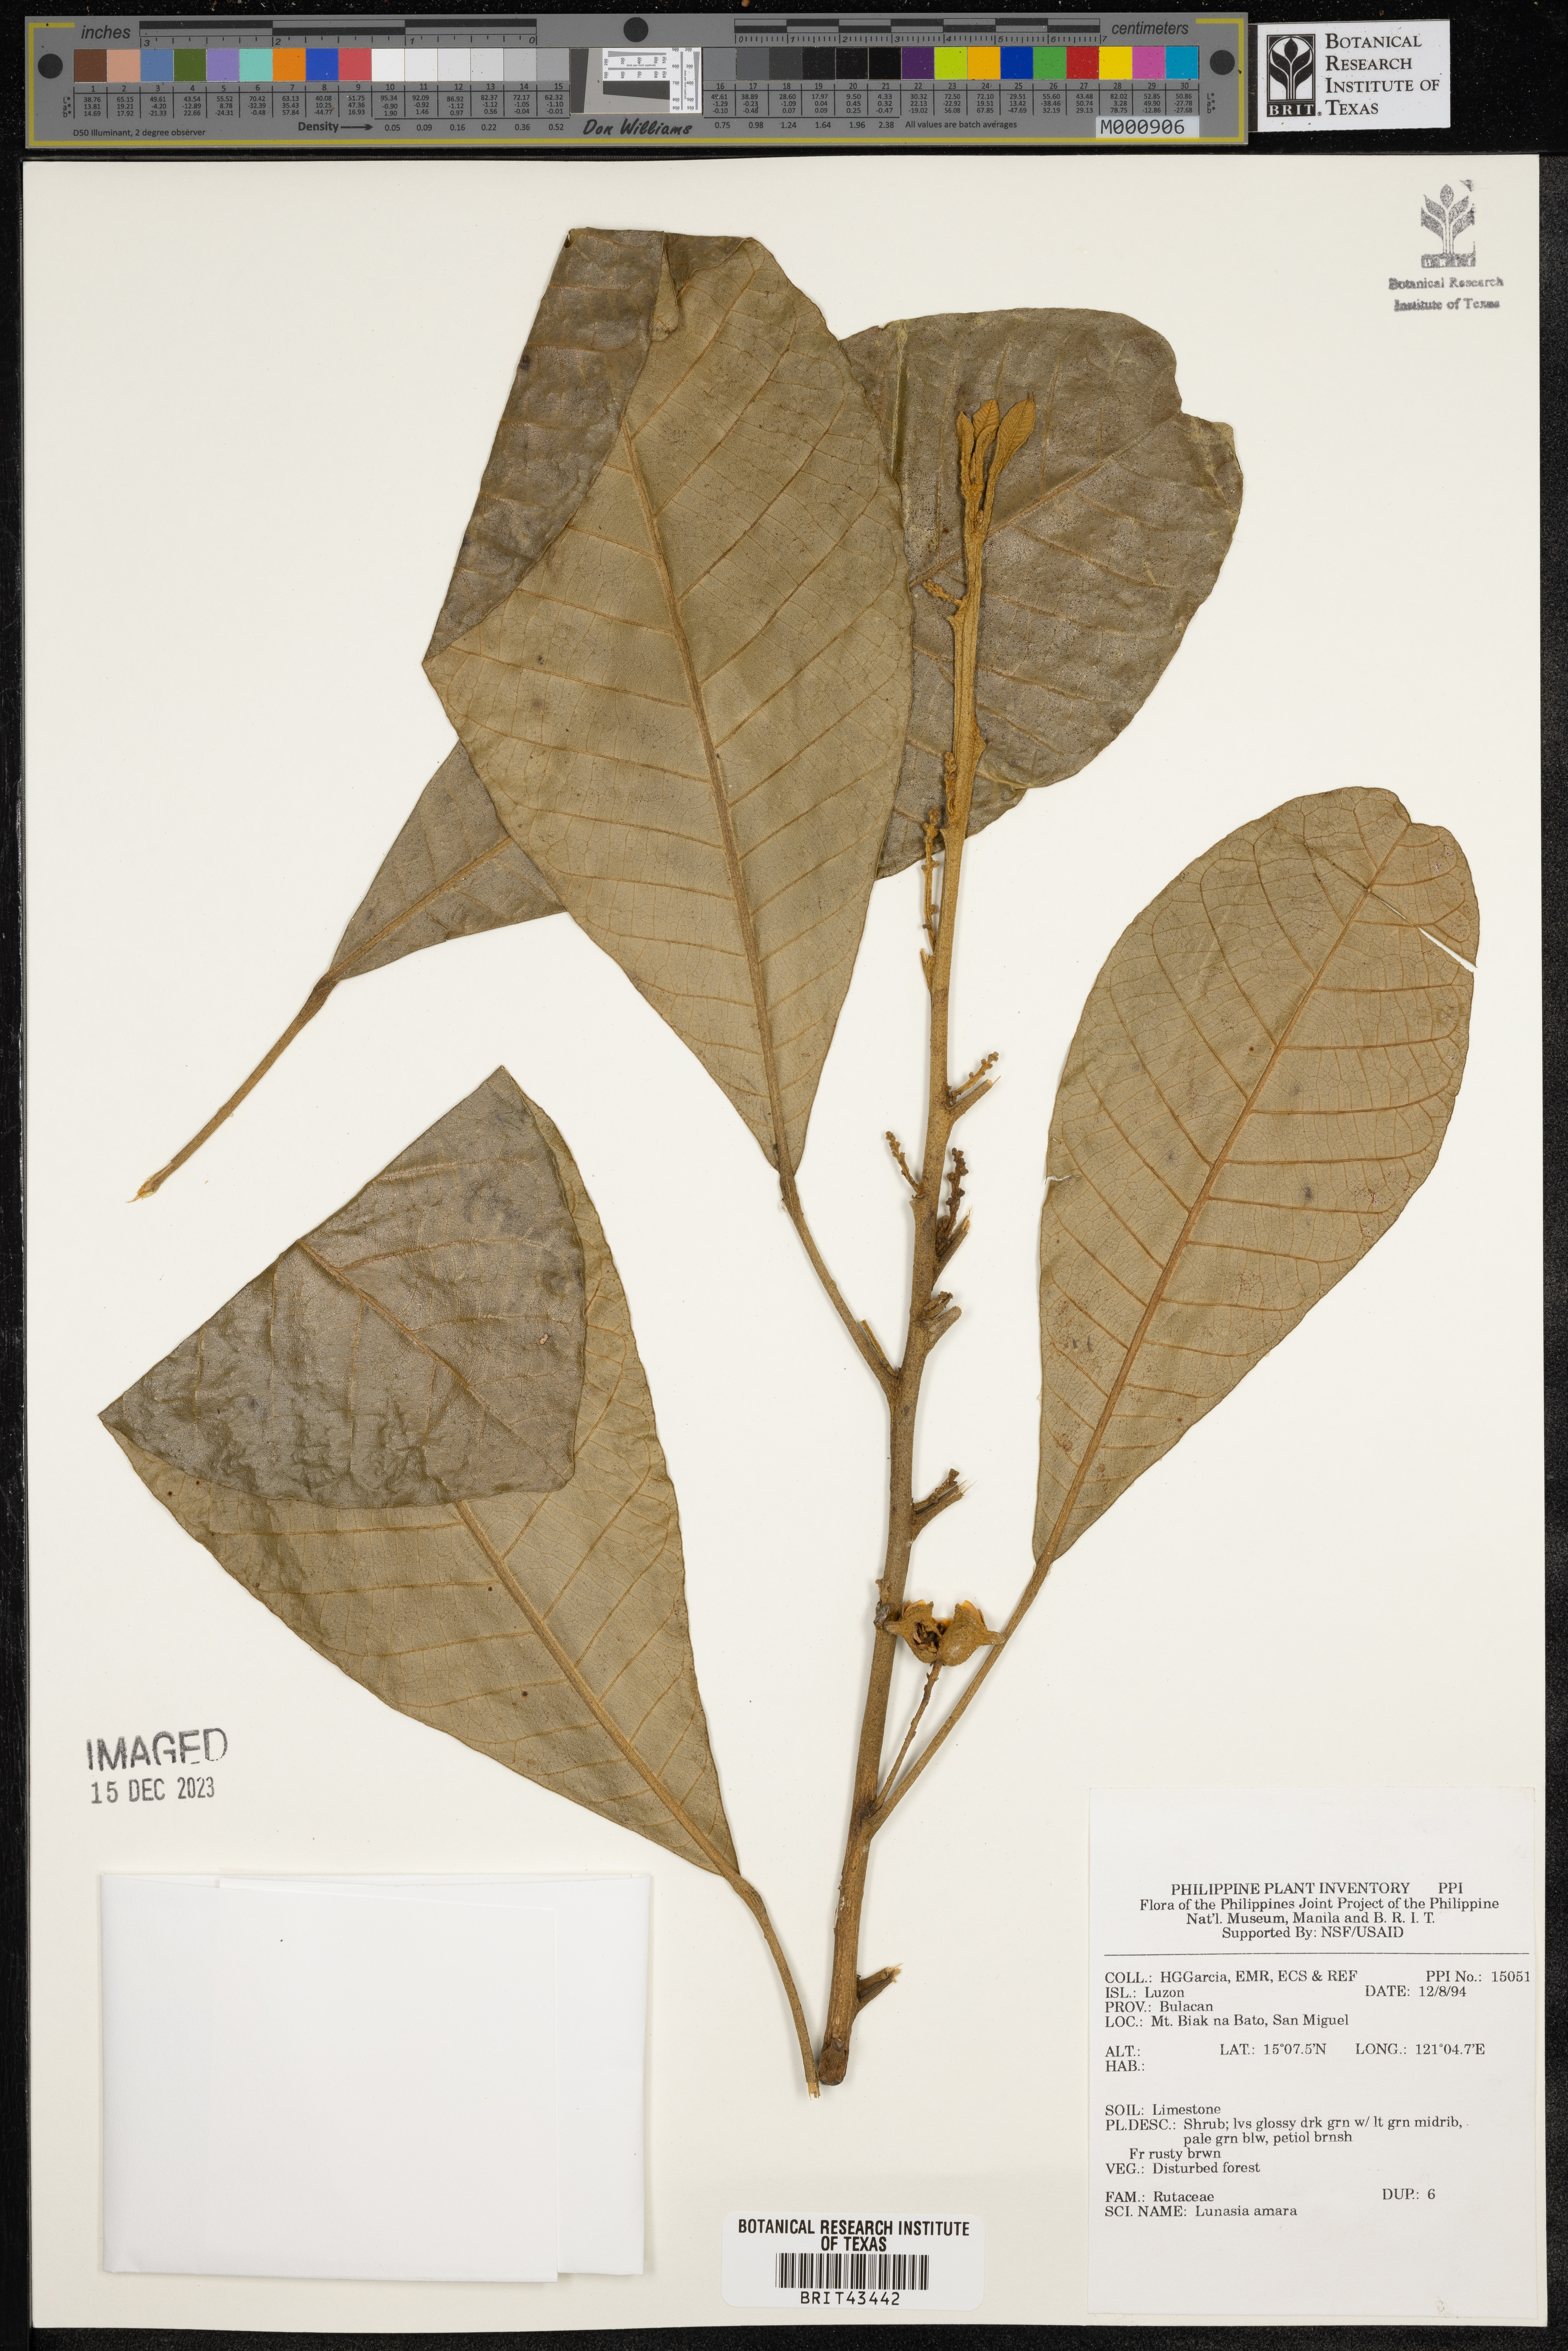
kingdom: Plantae
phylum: Tracheophyta
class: Magnoliopsida
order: Sapindales
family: Rutaceae
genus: Lunasia
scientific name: Lunasia amara
